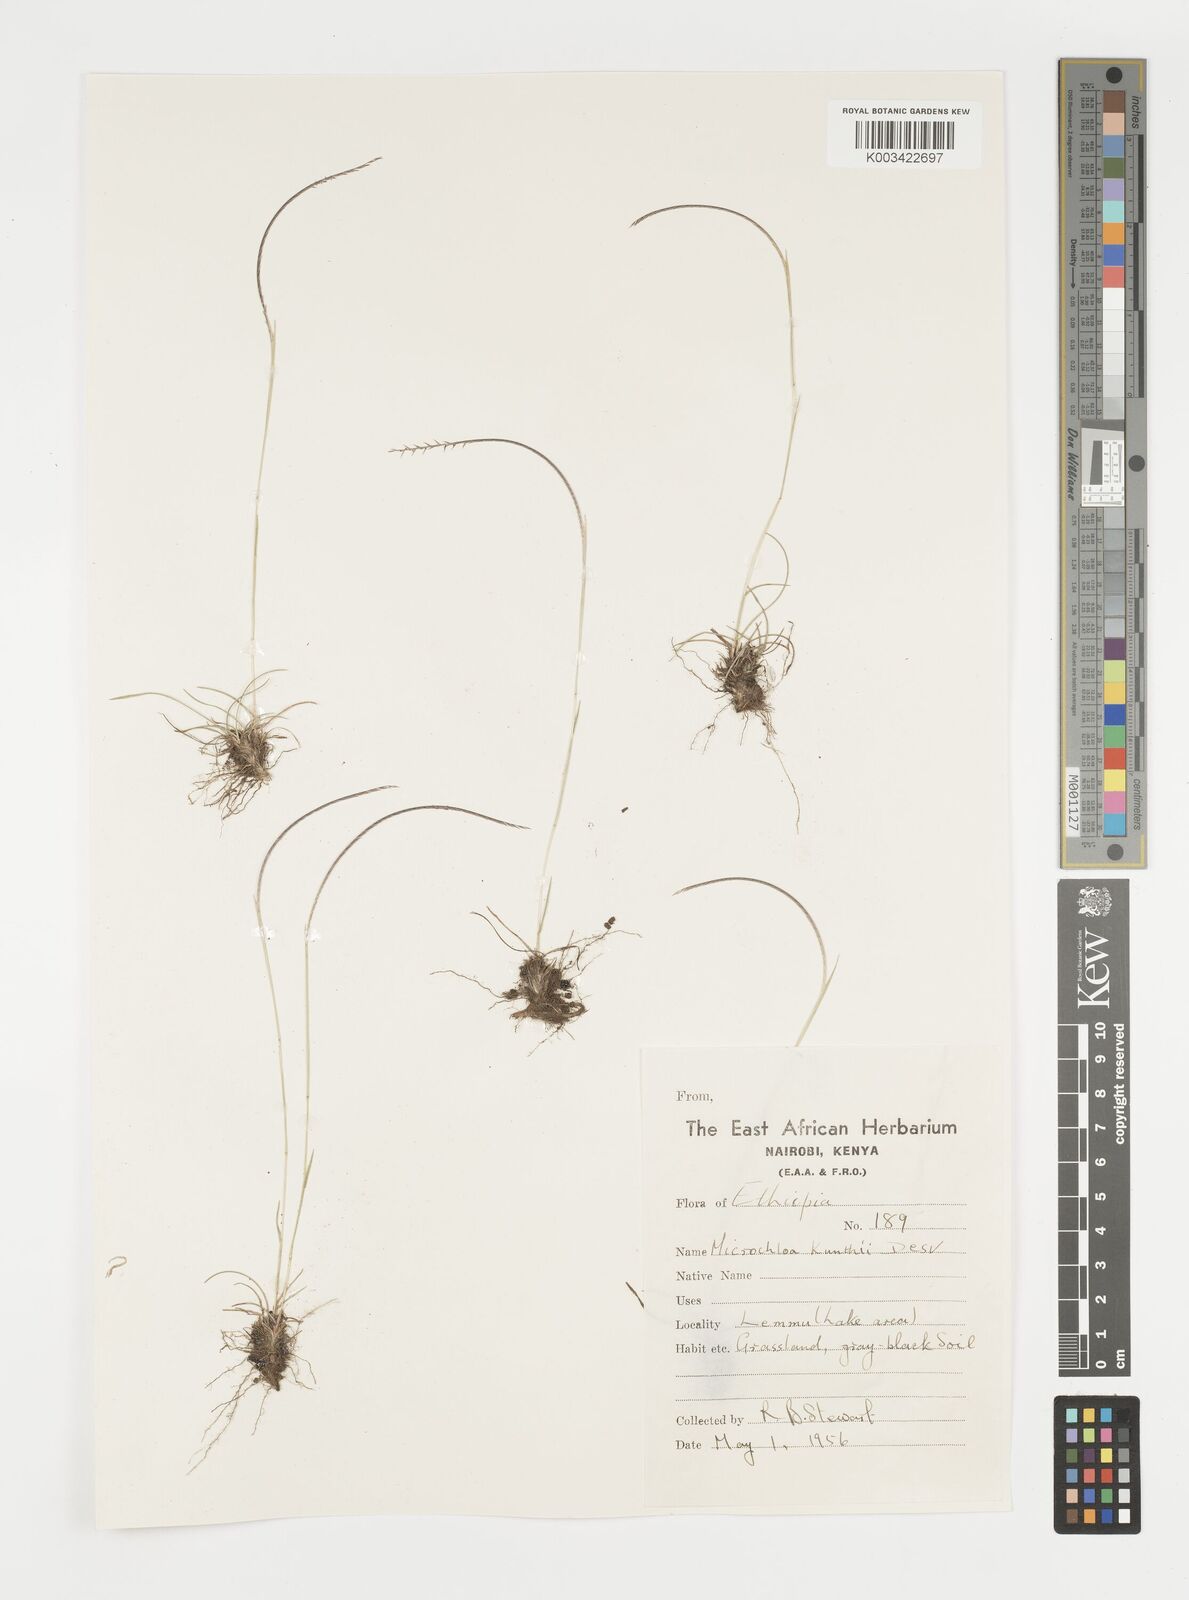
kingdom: Plantae
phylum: Tracheophyta
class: Liliopsida
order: Poales
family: Poaceae
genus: Microchloa
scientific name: Microchloa kunthii
